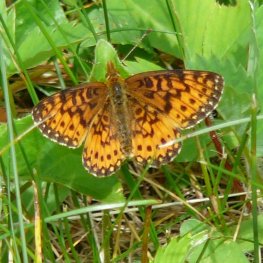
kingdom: Animalia
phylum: Arthropoda
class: Insecta
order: Lepidoptera
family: Nymphalidae
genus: Boloria
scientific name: Boloria selene
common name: Silver-bordered Fritillary
